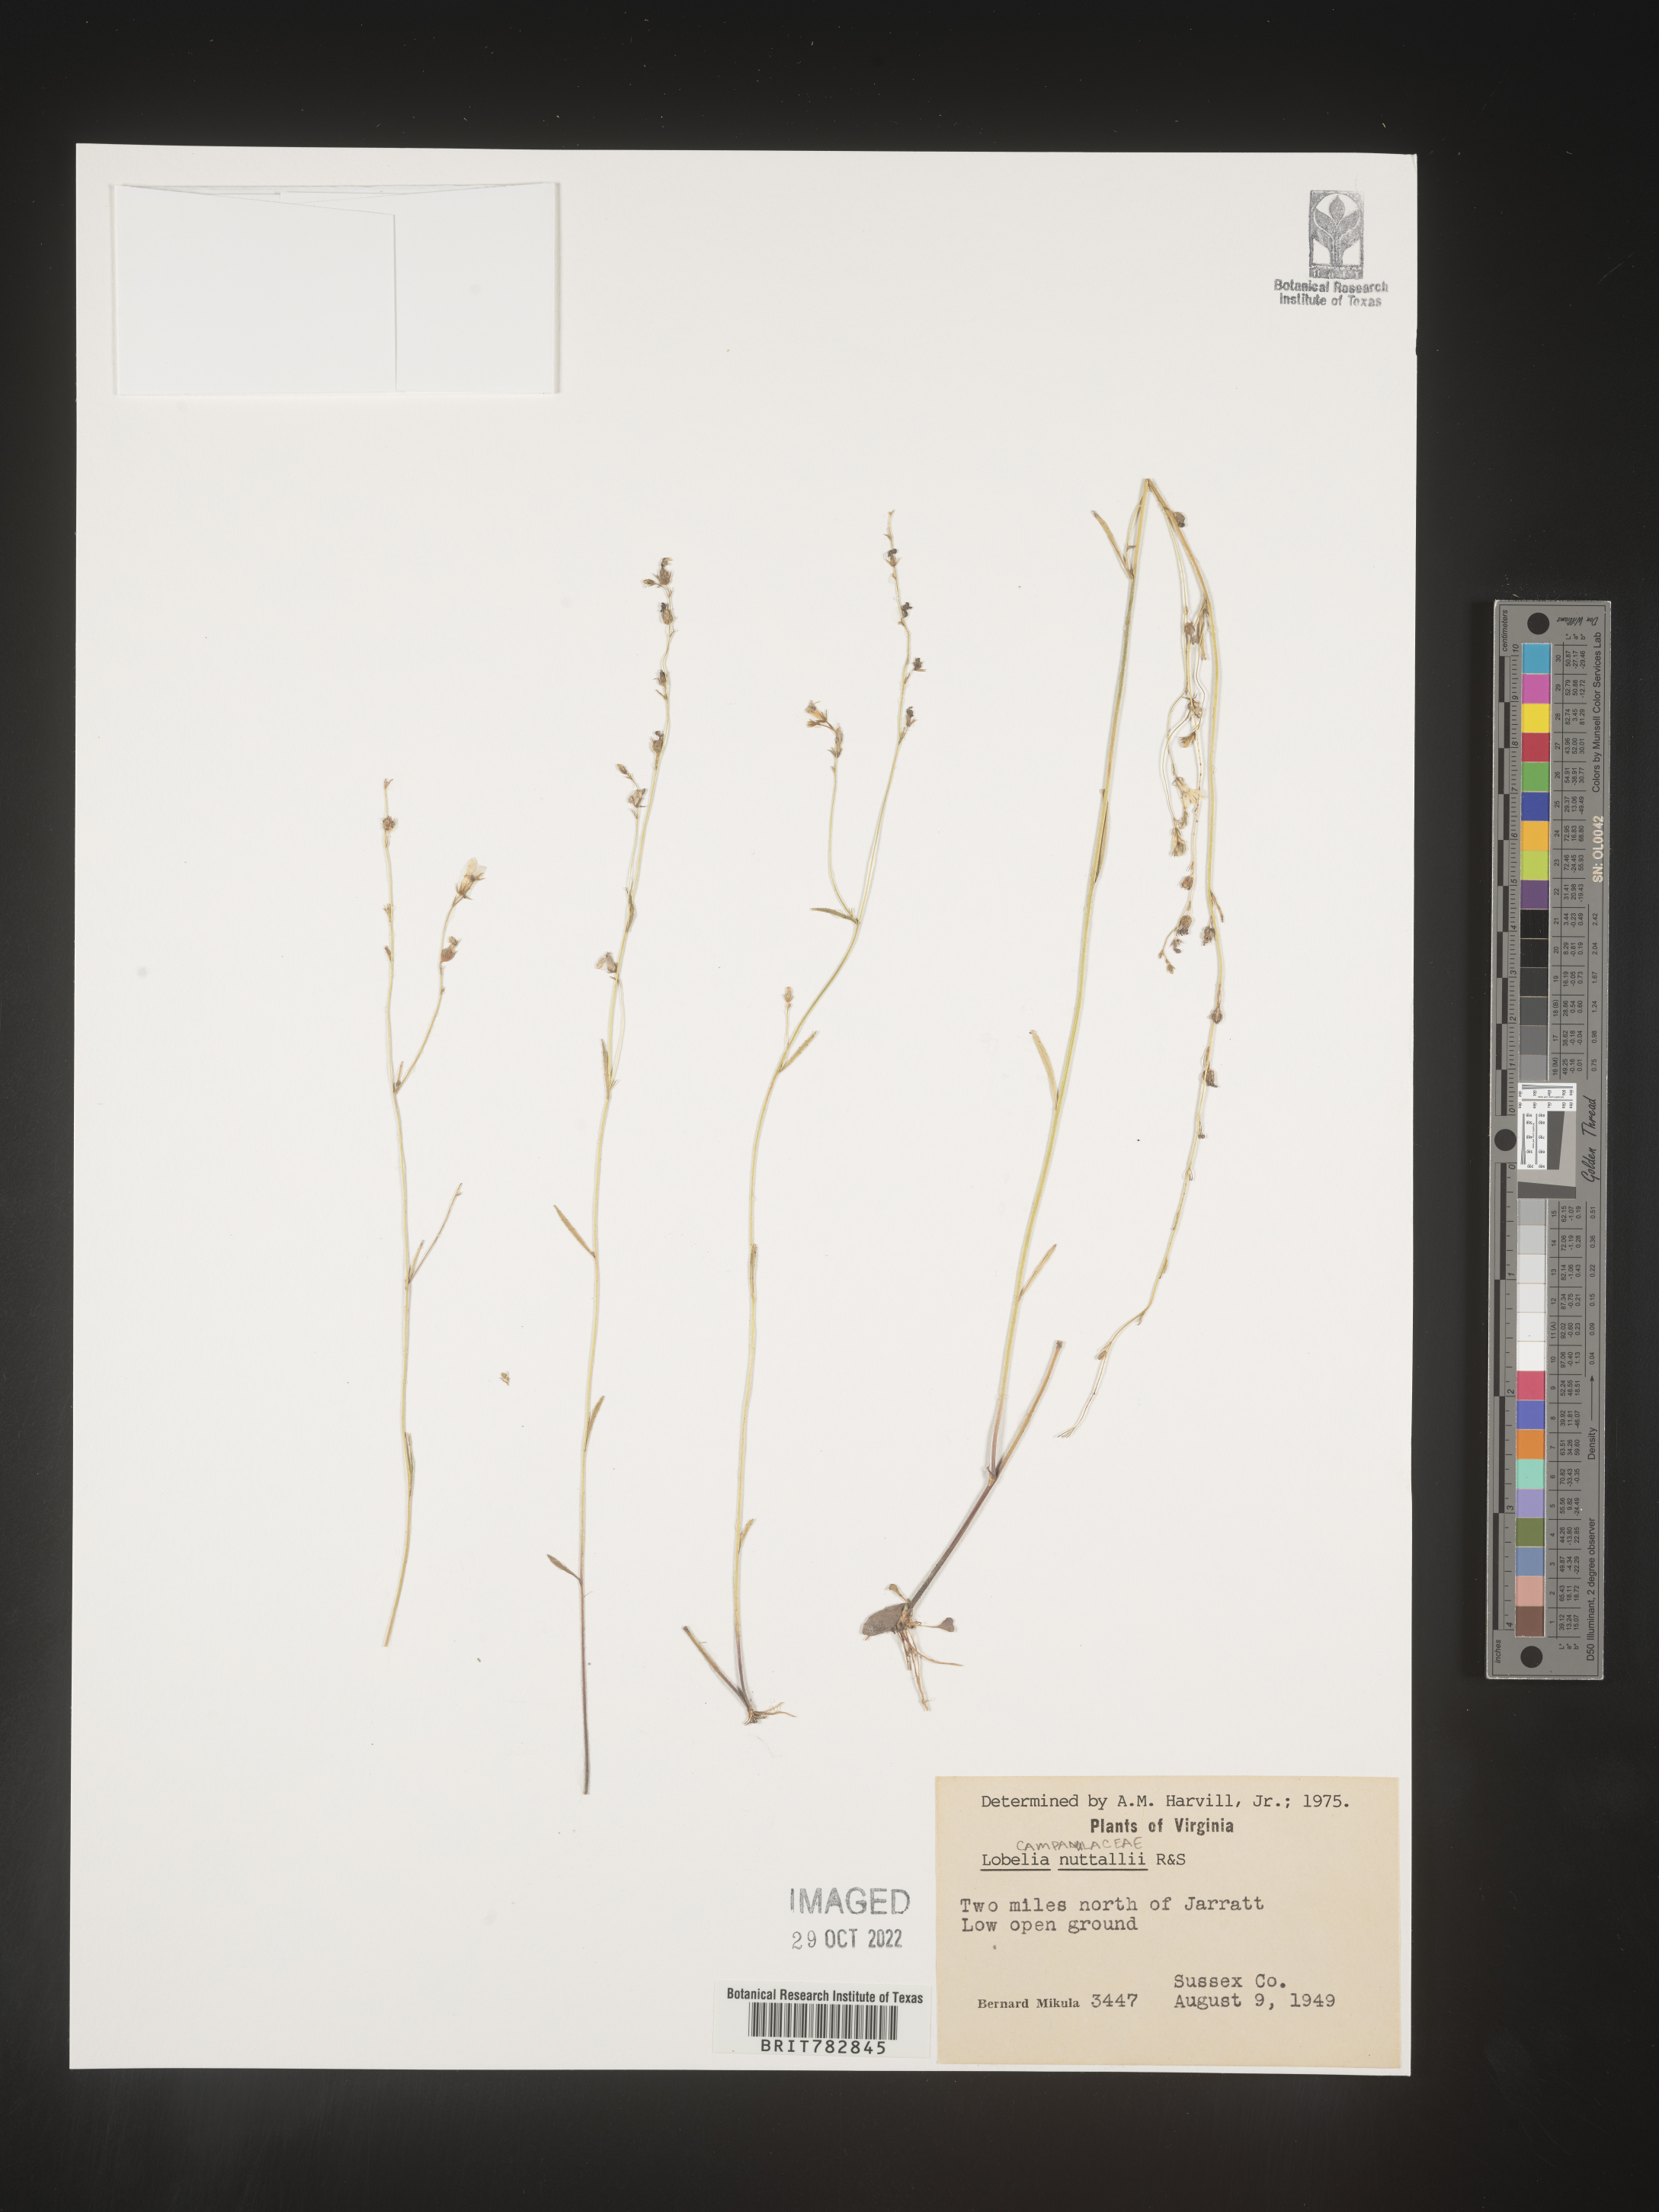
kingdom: Plantae
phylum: Tracheophyta
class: Magnoliopsida
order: Asterales
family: Campanulaceae
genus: Lobelia
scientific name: Lobelia nuttallii
